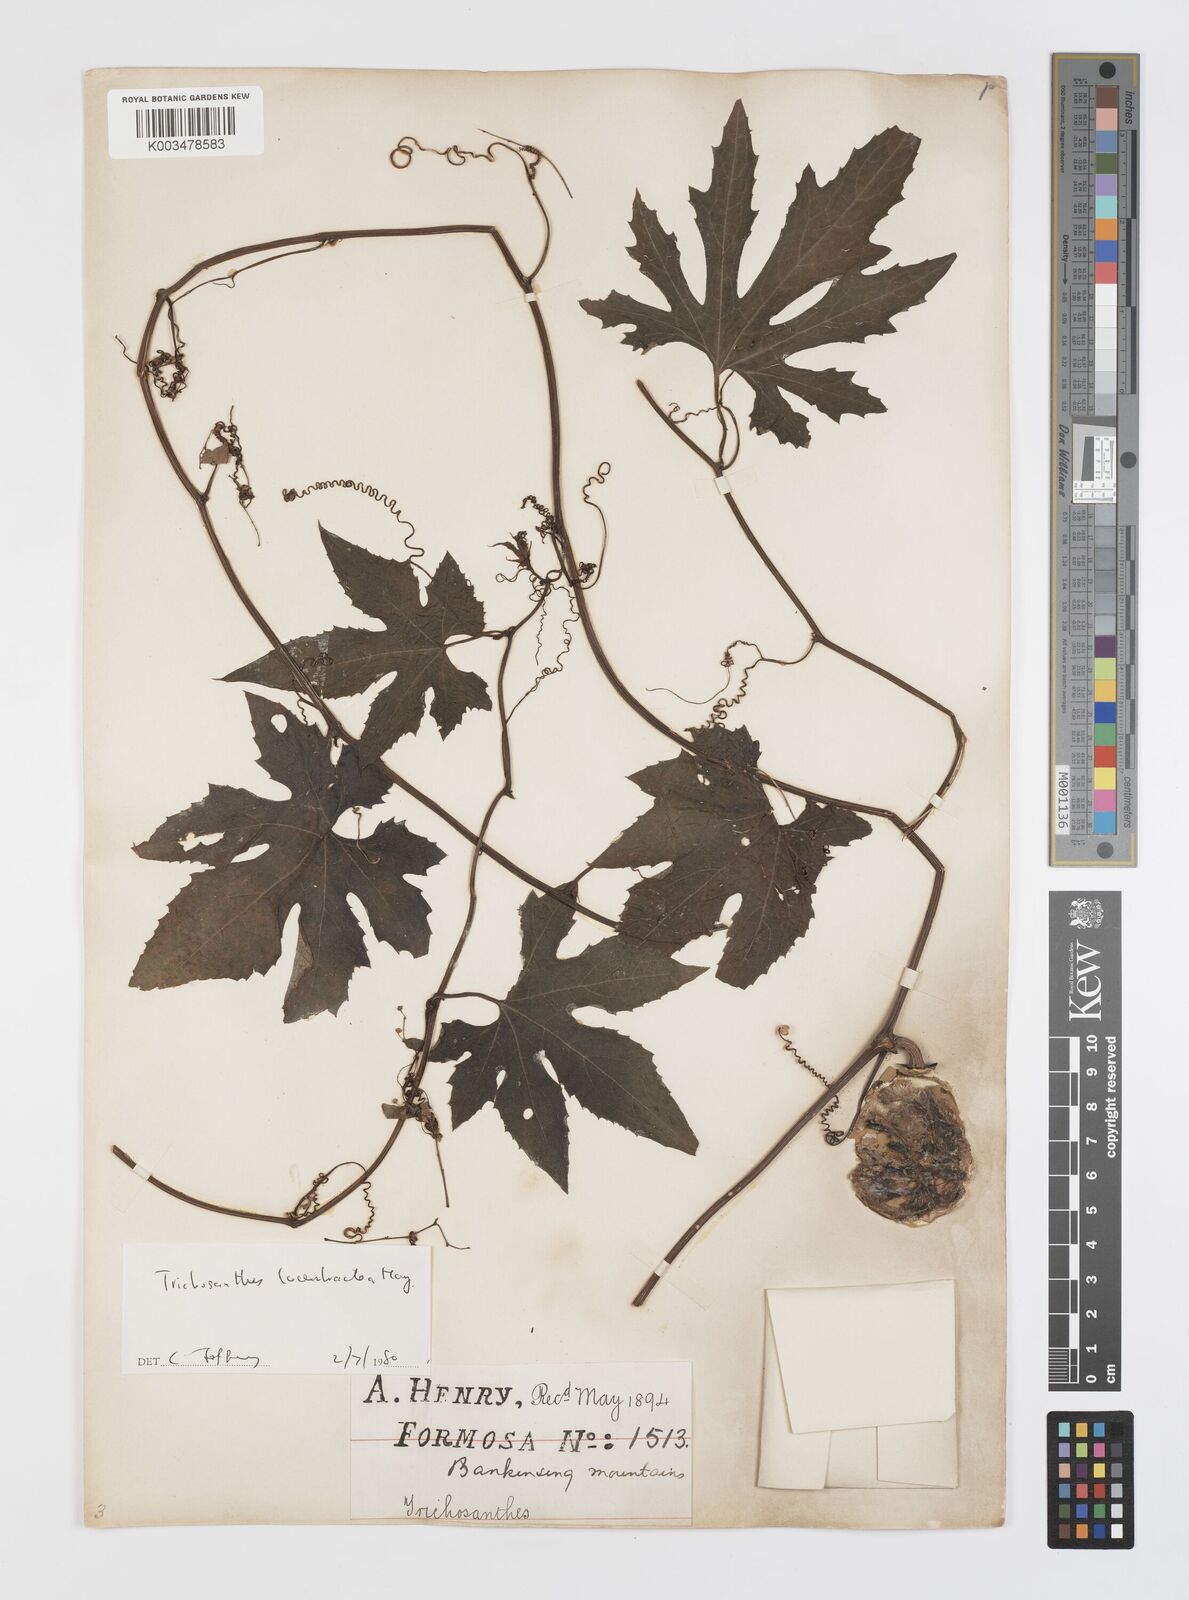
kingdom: Plantae
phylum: Tracheophyta
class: Magnoliopsida
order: Cucurbitales
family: Cucurbitaceae
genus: Trichosanthes
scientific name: Trichosanthes laceribractea
